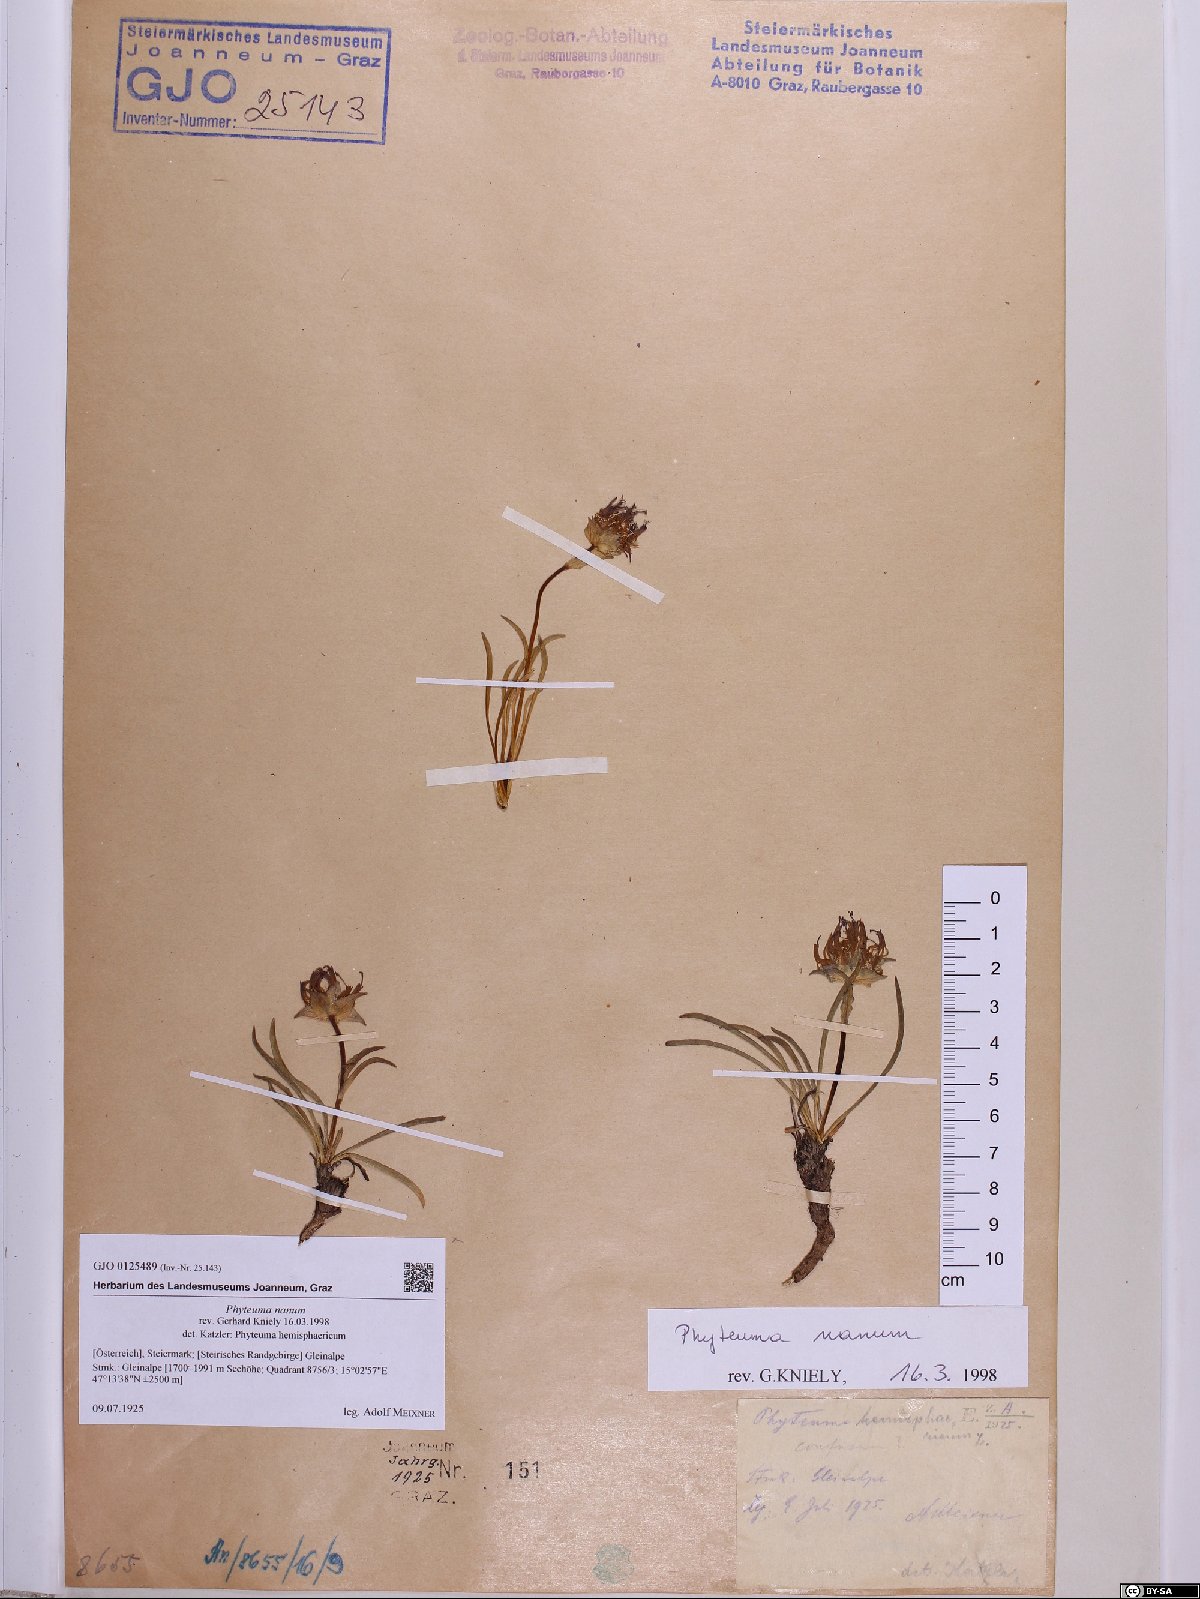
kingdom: Plantae
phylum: Tracheophyta
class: Magnoliopsida
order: Asterales
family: Campanulaceae
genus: Phyteuma
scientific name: Phyteuma globulariifolium
